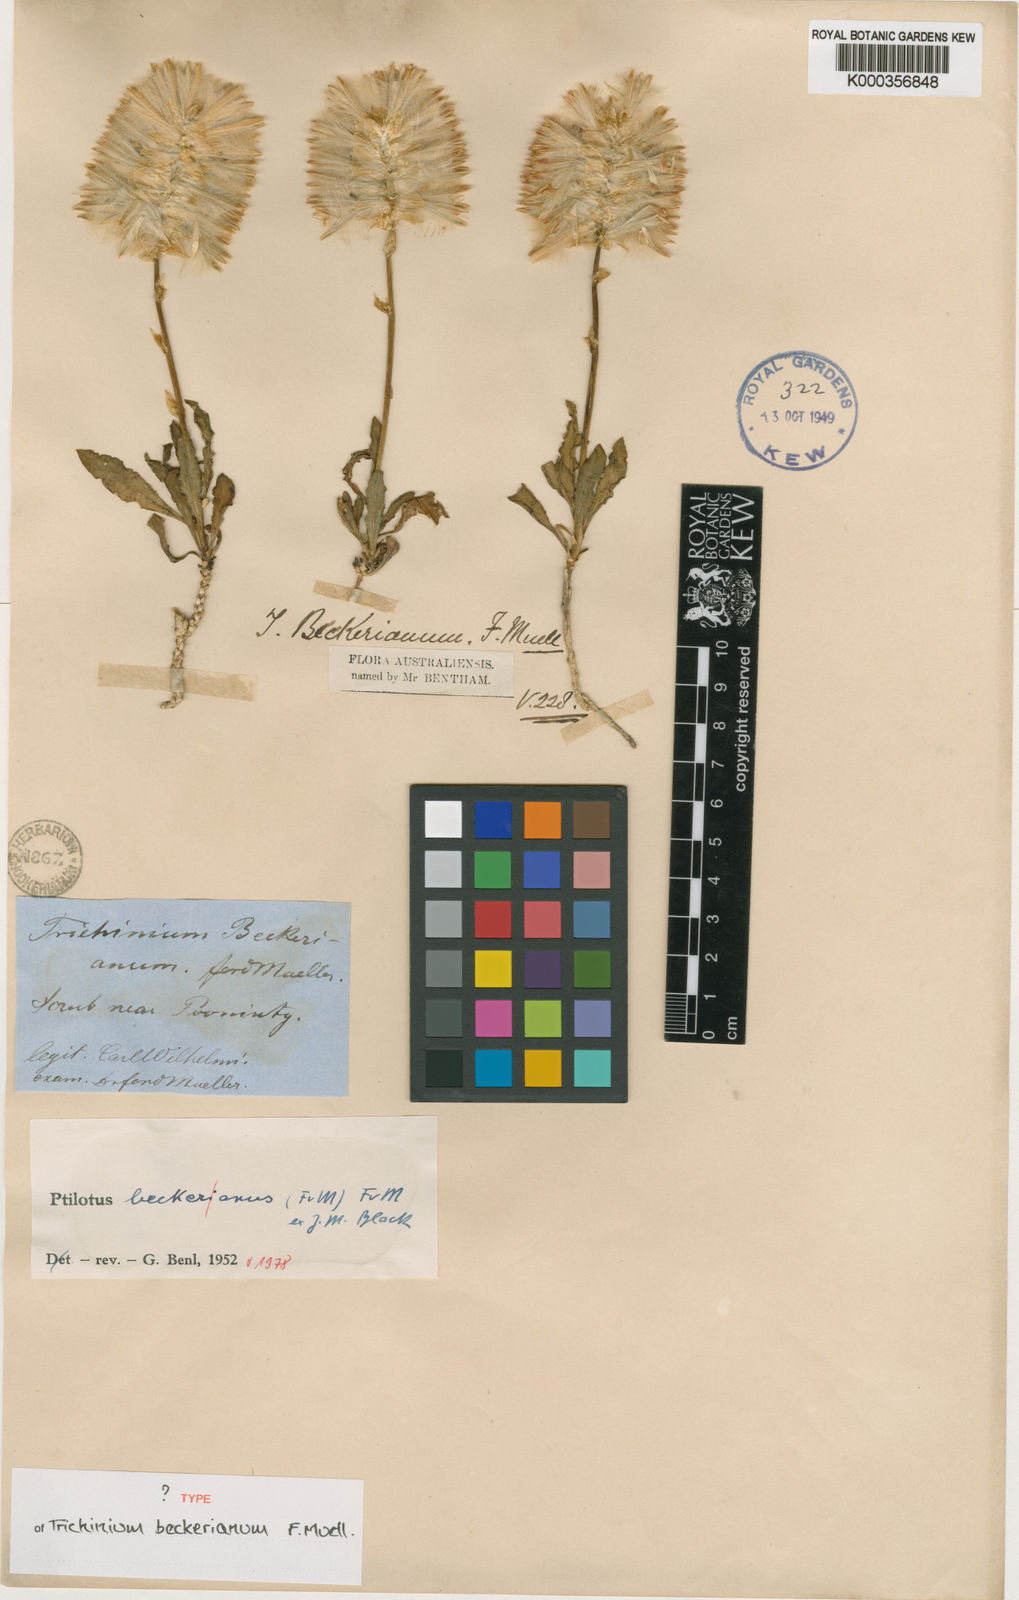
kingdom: Plantae
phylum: Tracheophyta
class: Magnoliopsida
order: Caryophyllales
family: Amaranthaceae
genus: Ptilotus
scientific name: Ptilotus beckerianus
